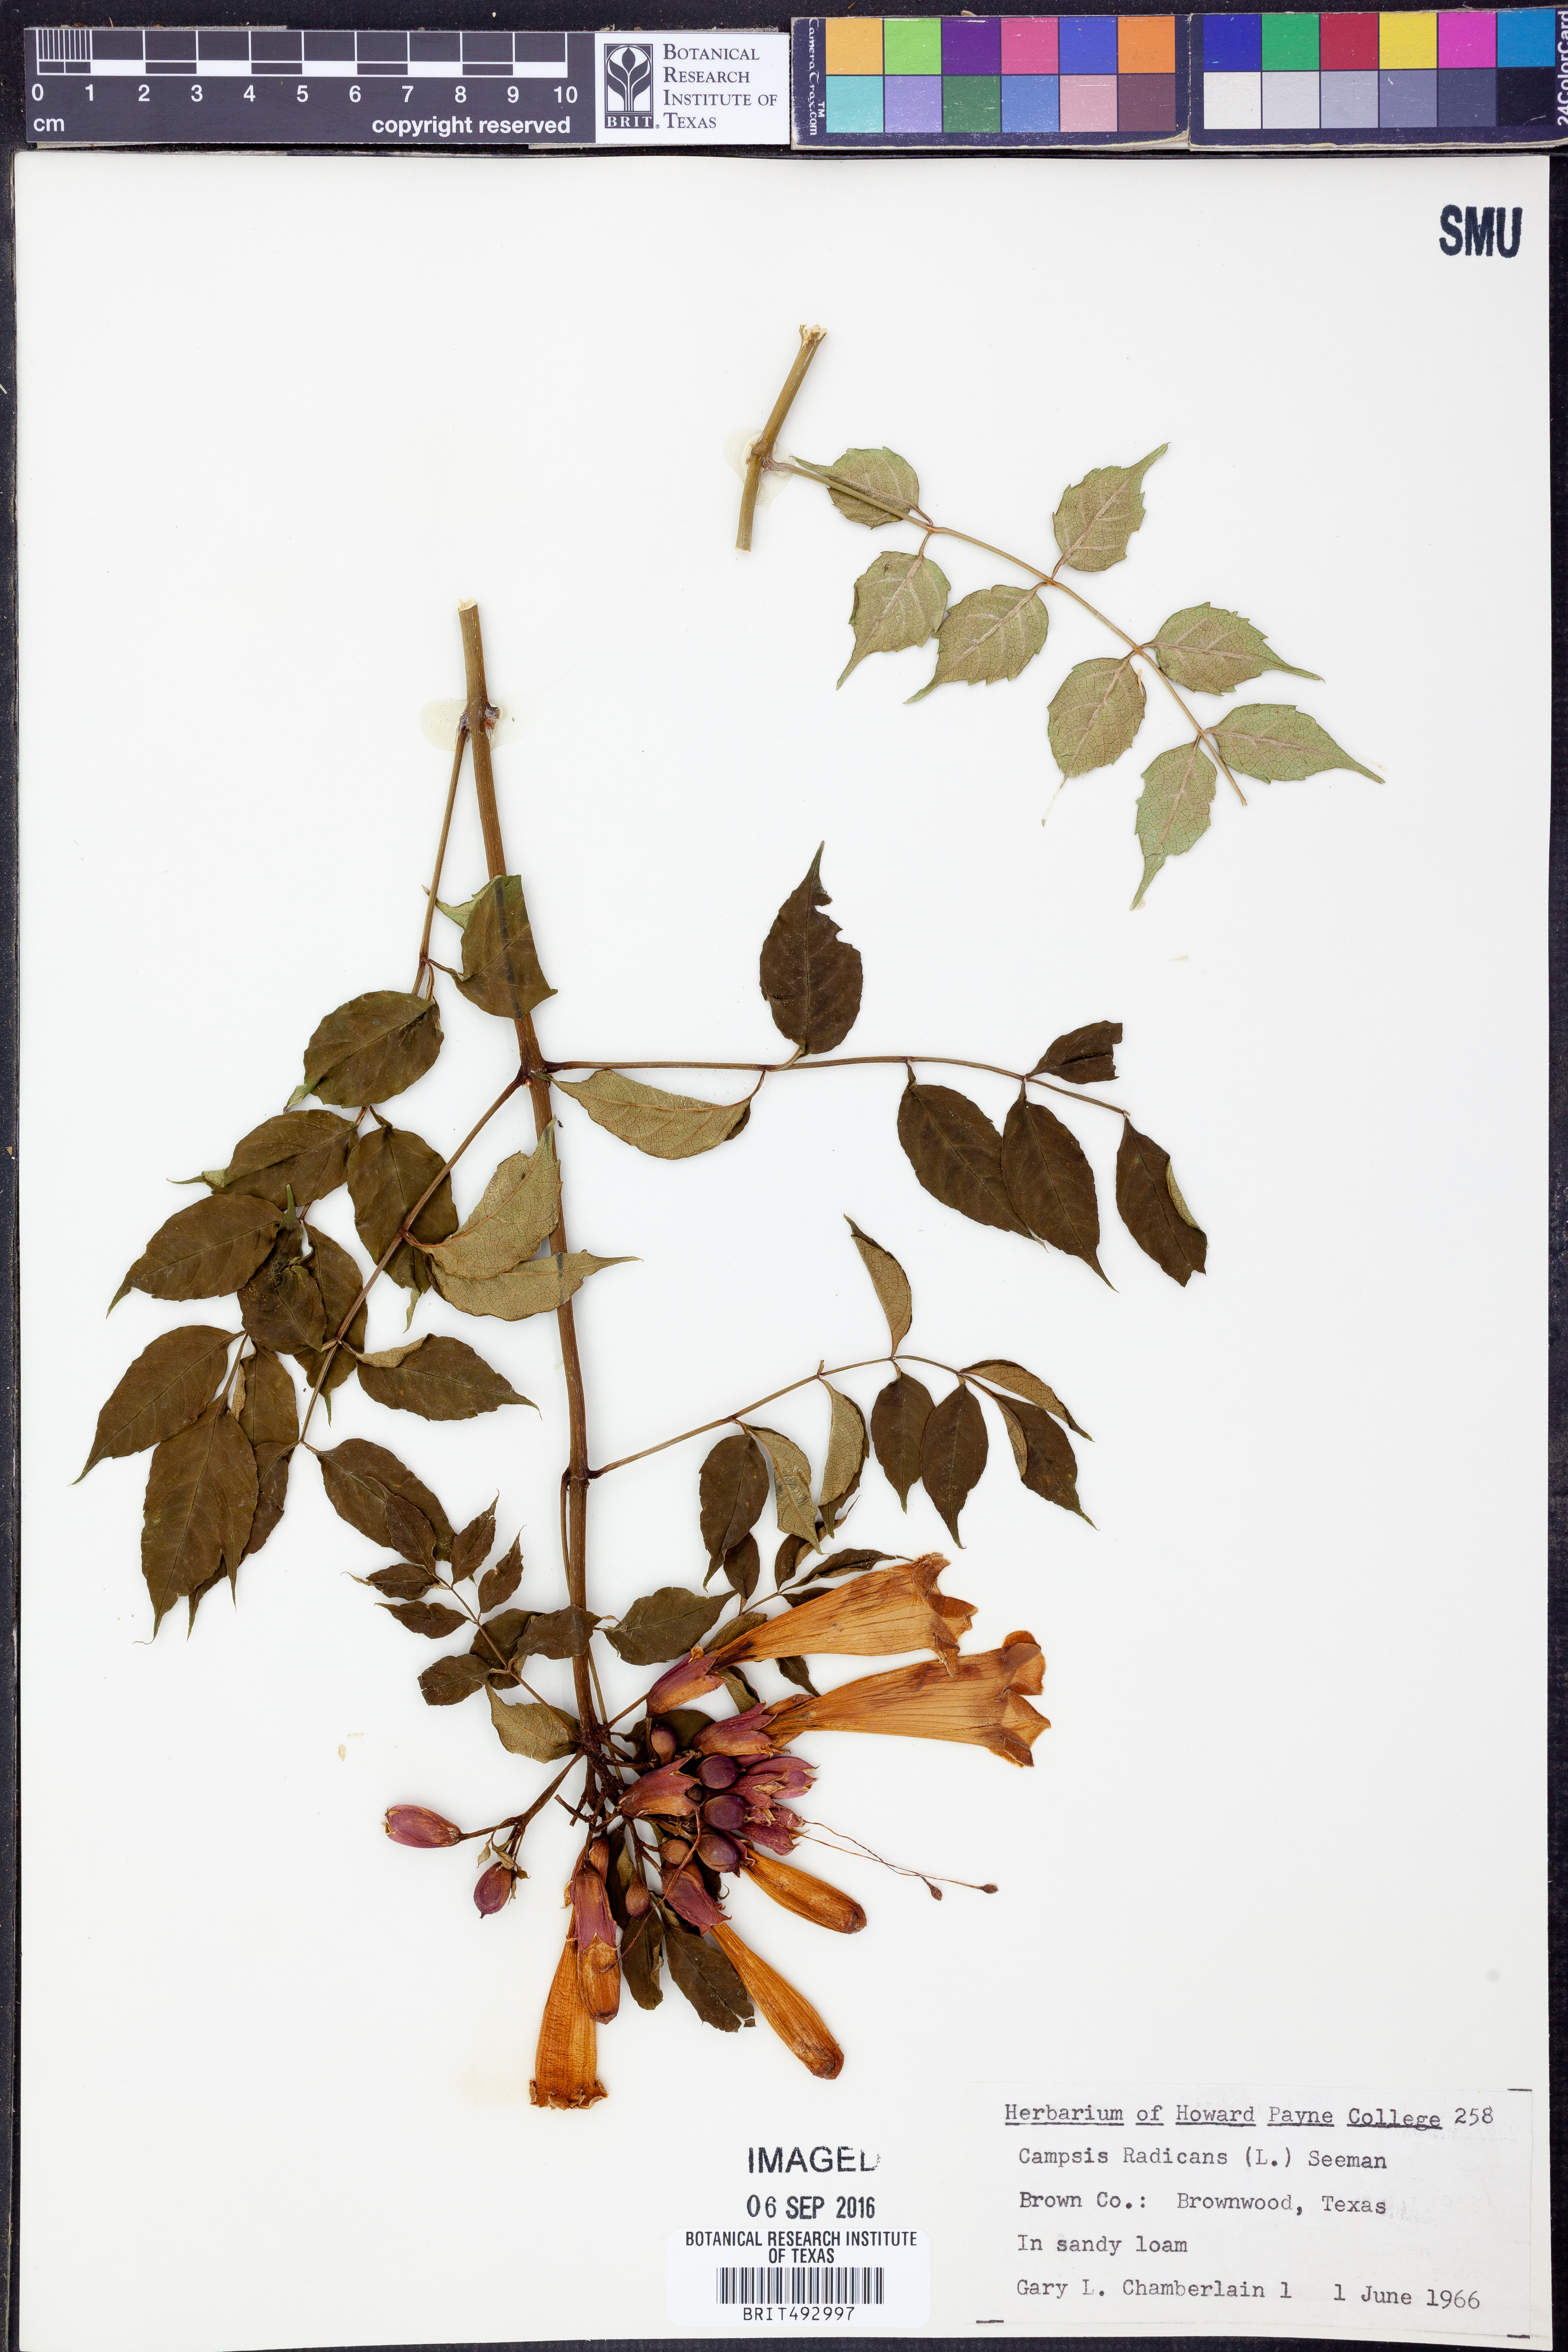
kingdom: Plantae
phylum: Tracheophyta
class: Magnoliopsida
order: Lamiales
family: Bignoniaceae
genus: Campsis
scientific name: Campsis radicans
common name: Trumpet-creeper
